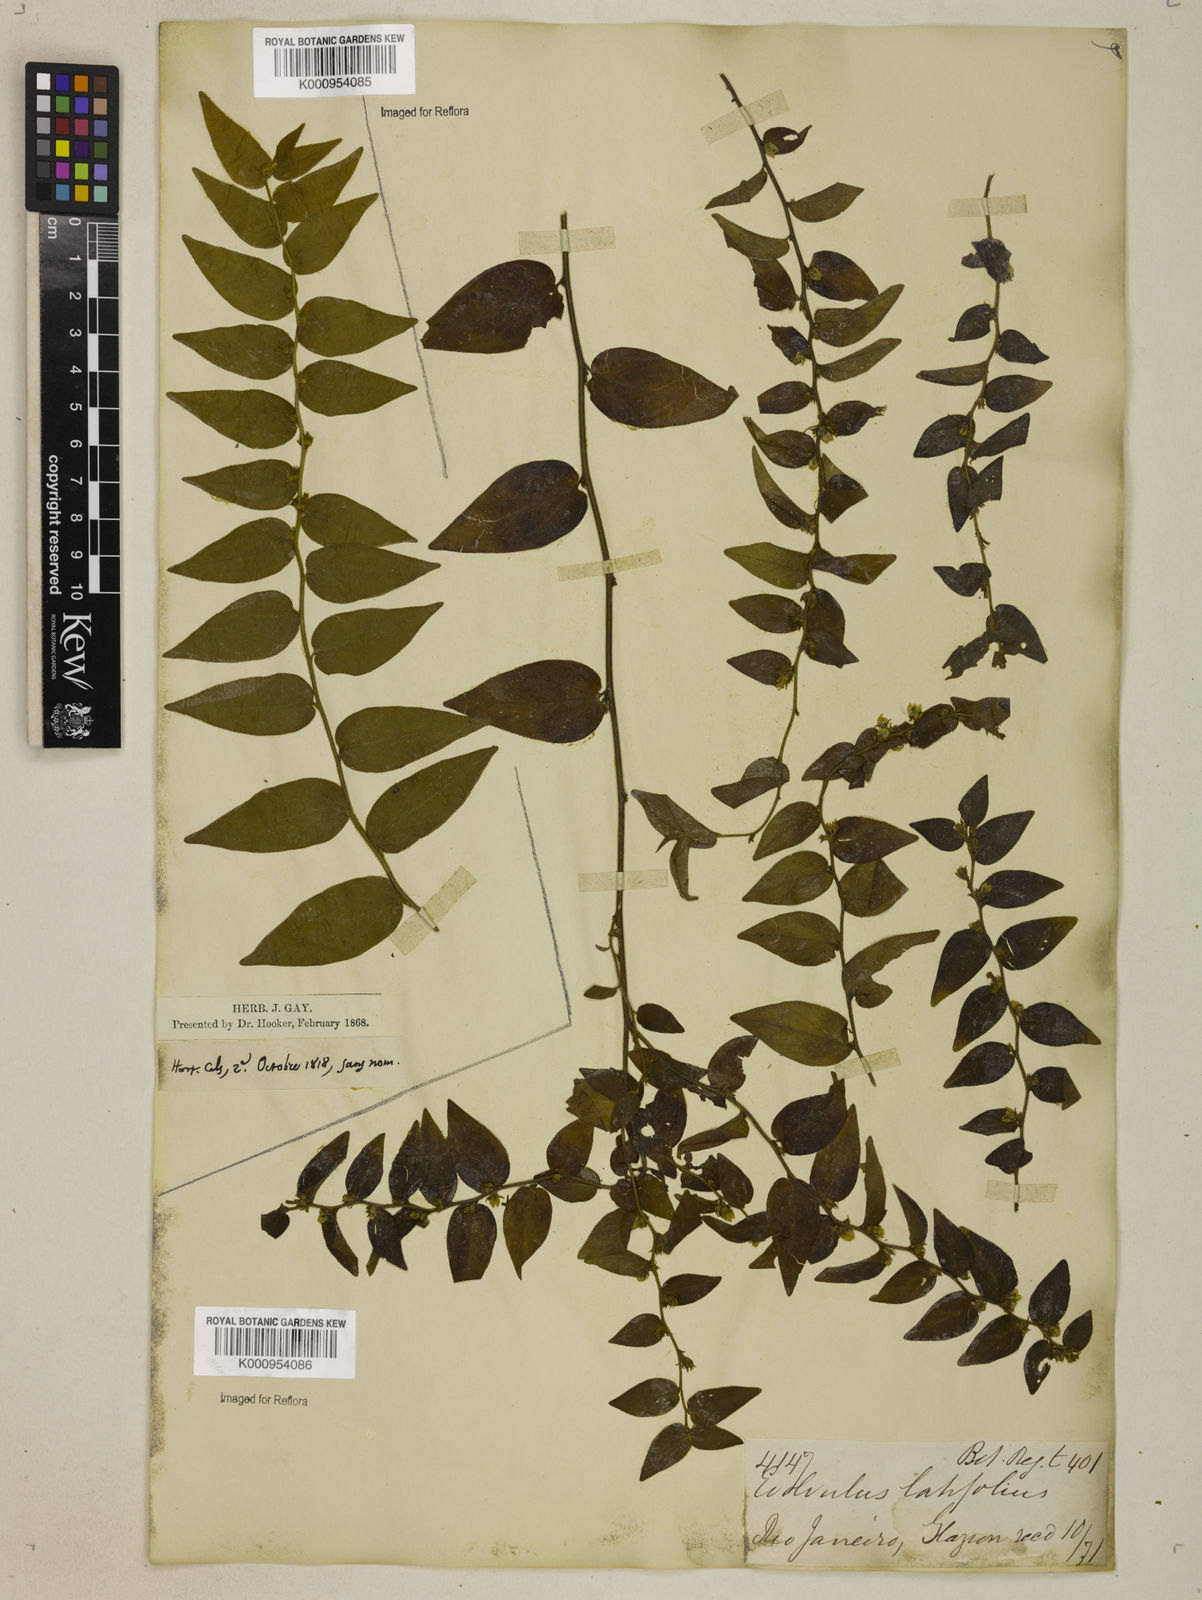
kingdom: Plantae
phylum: Tracheophyta
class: Magnoliopsida
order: Solanales
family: Convolvulaceae
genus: Evolvulus
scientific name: Evolvulus latifolius
